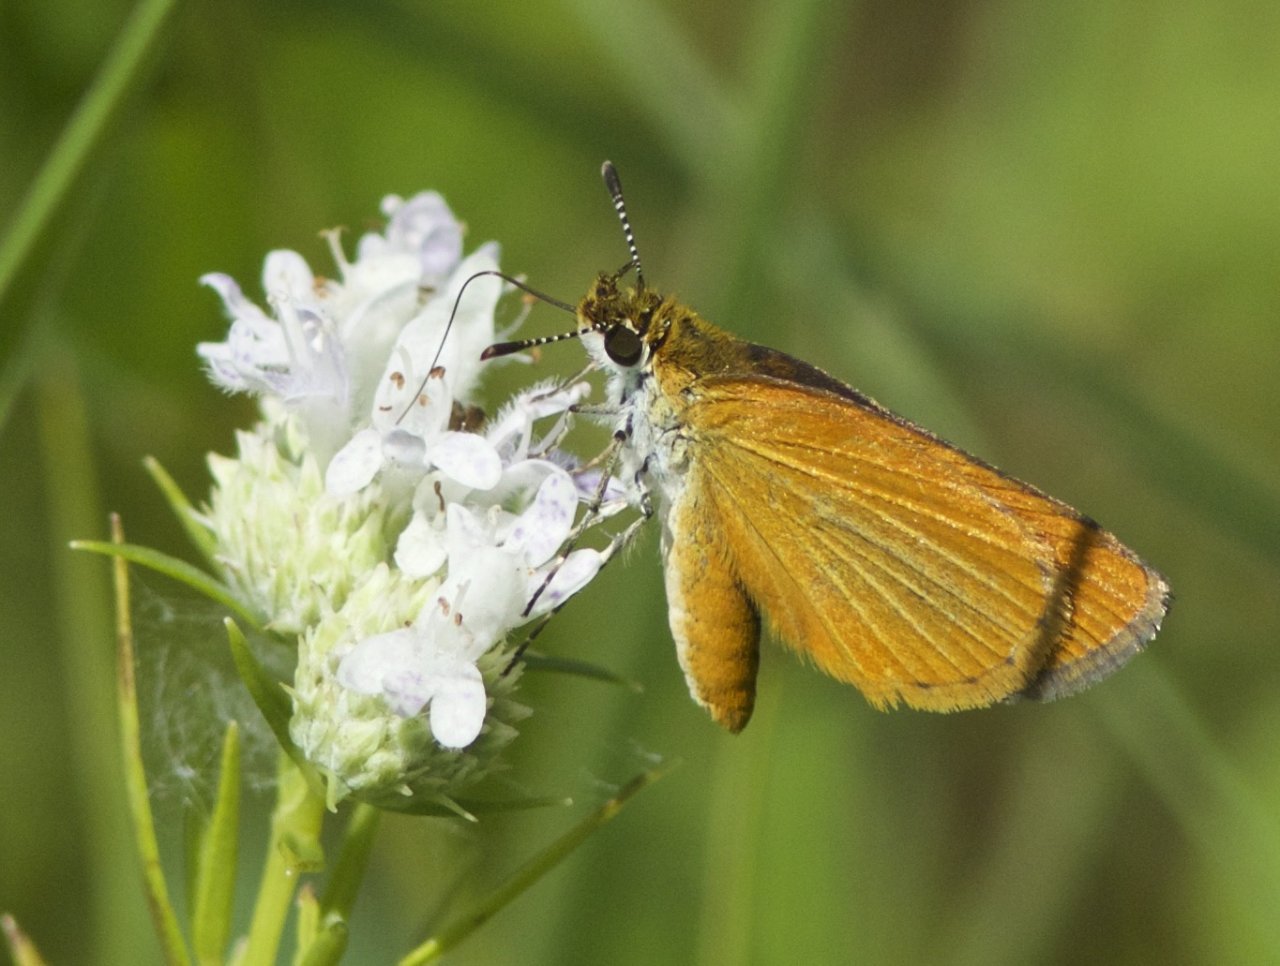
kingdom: Animalia
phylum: Arthropoda
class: Insecta
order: Lepidoptera
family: Hesperiidae
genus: Ancyloxypha
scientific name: Ancyloxypha numitor
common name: Least Skipper
